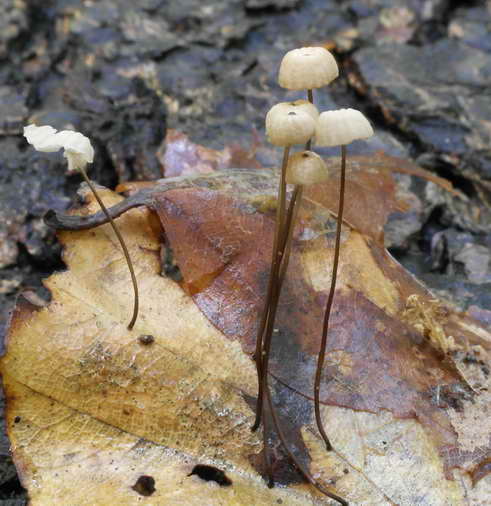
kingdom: Fungi
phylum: Basidiomycota
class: Agaricomycetes
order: Agaricales
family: Marasmiaceae
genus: Marasmius
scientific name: Marasmius bulliardii
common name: furet bruskhat
